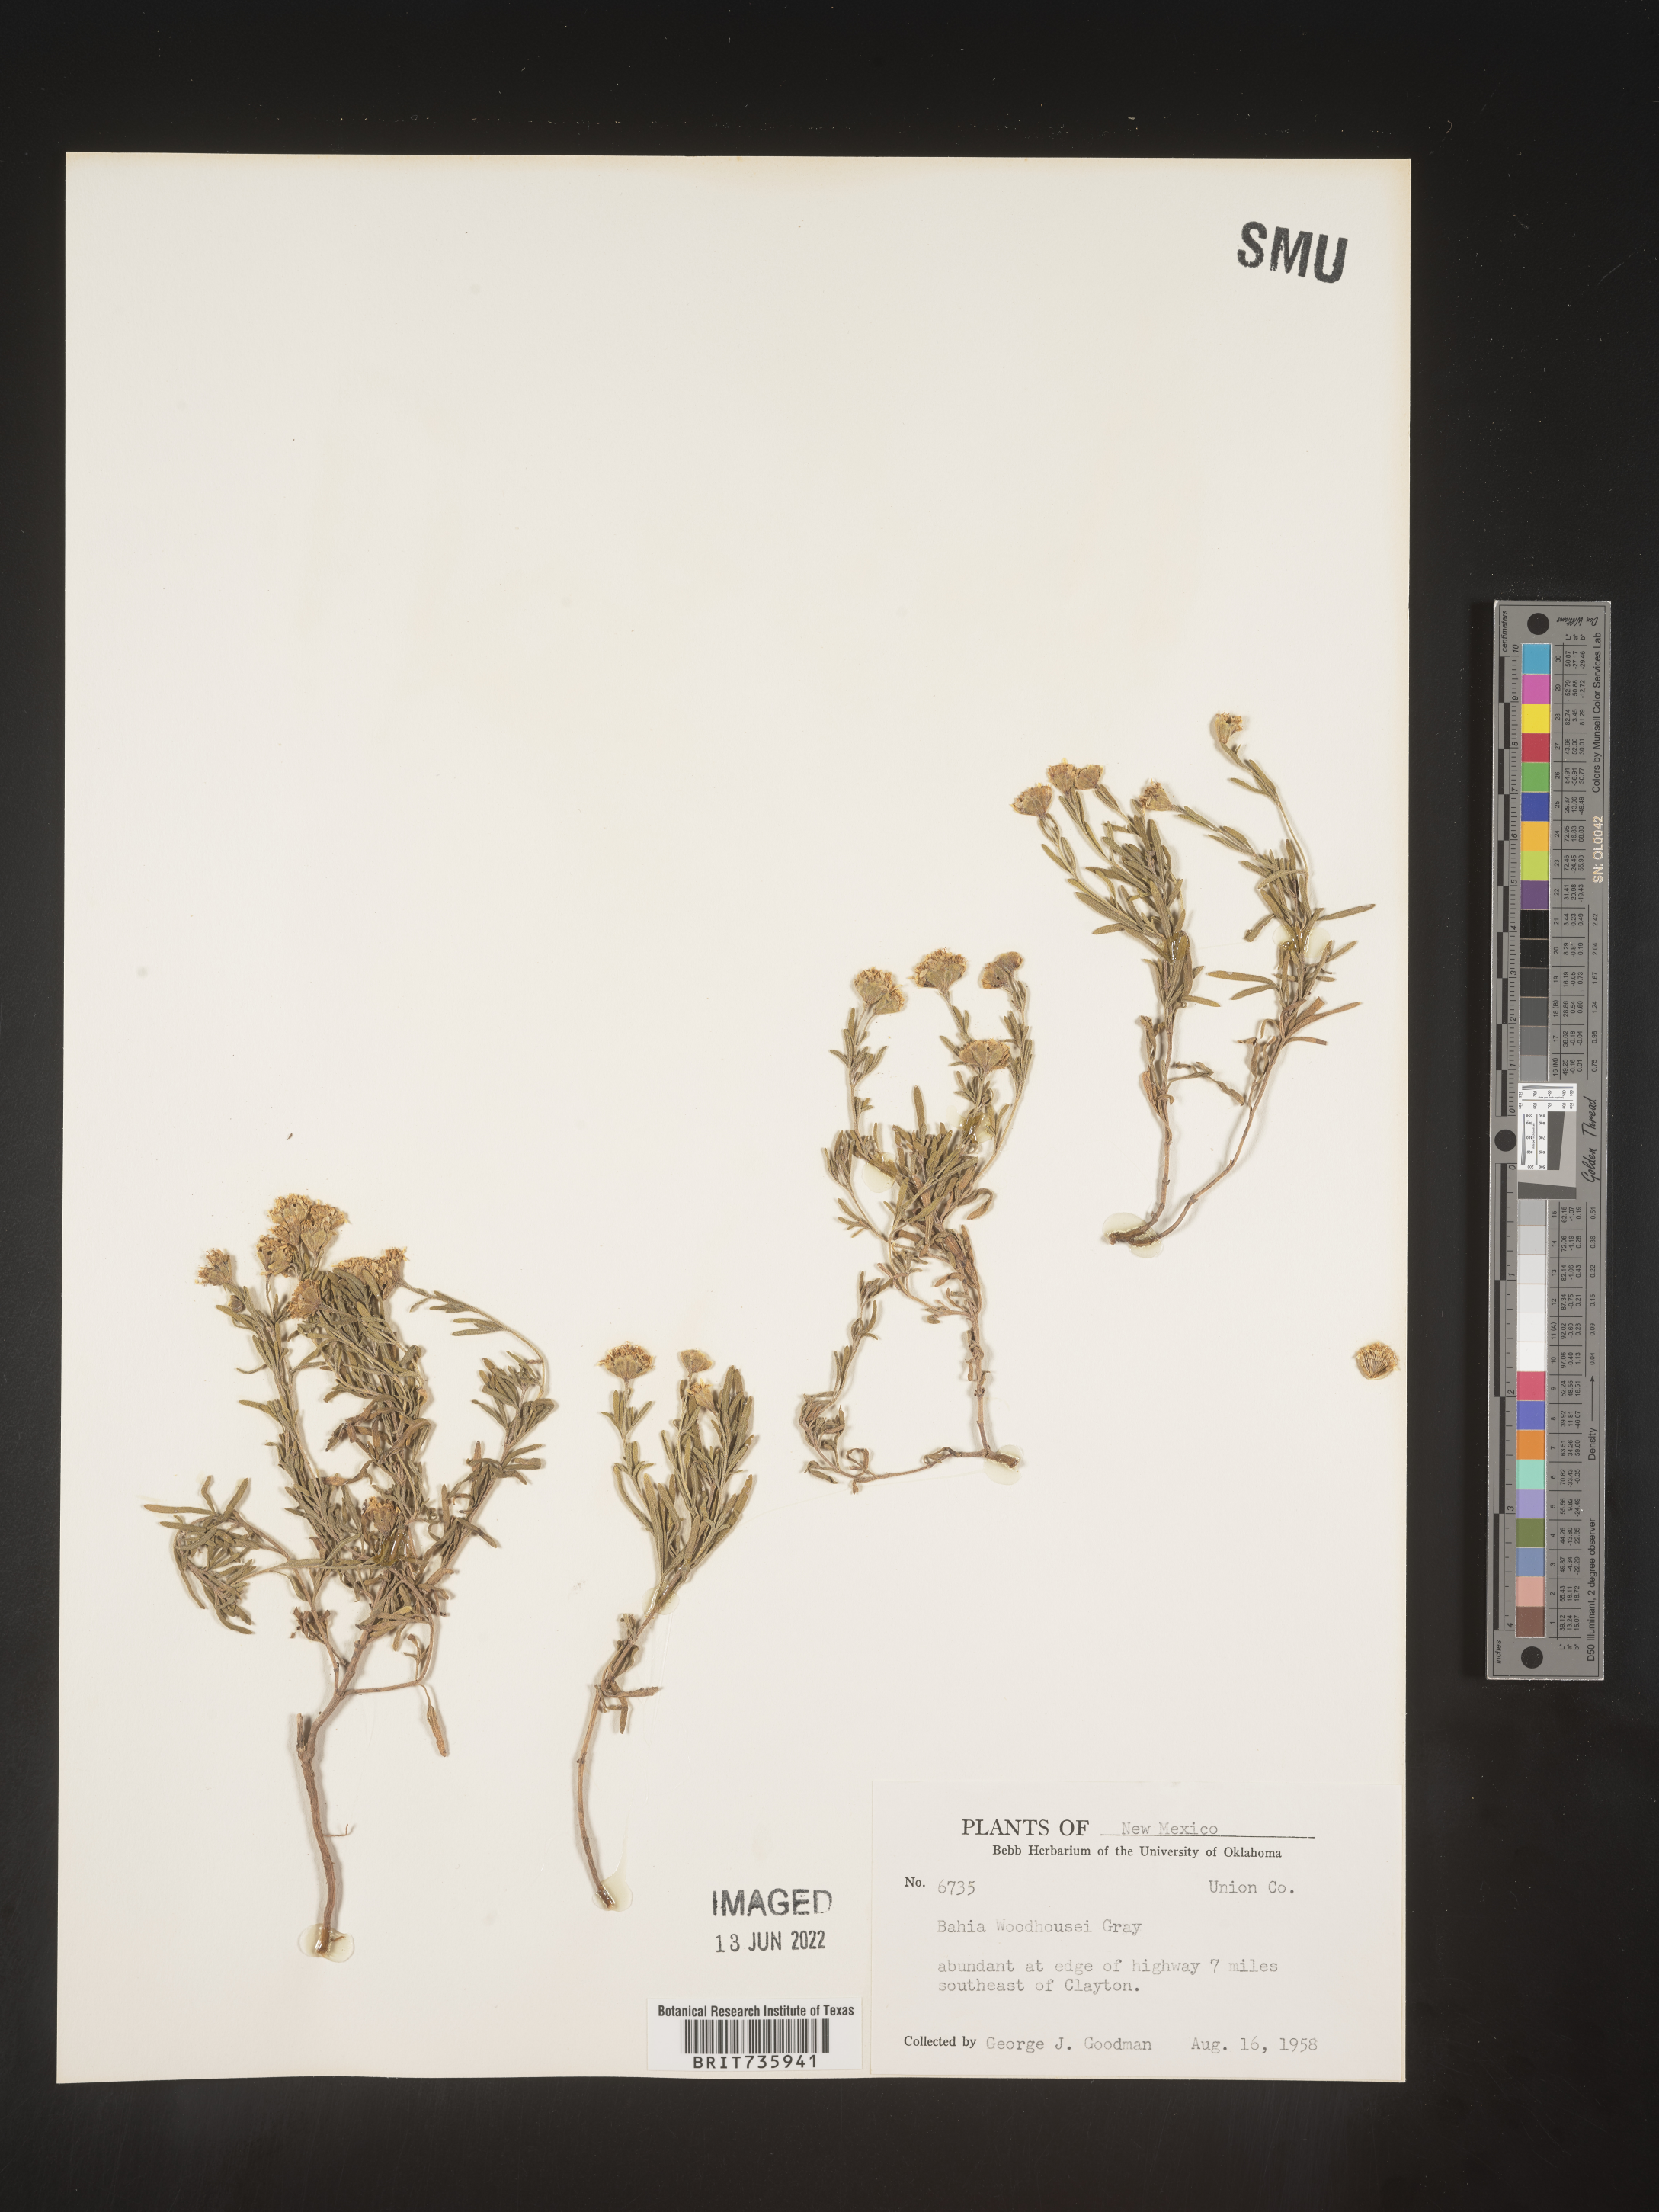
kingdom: Plantae
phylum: Tracheophyta
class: Magnoliopsida
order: Asterales
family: Asteraceae
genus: Picradeniopsis
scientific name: Picradeniopsis woodhousei
